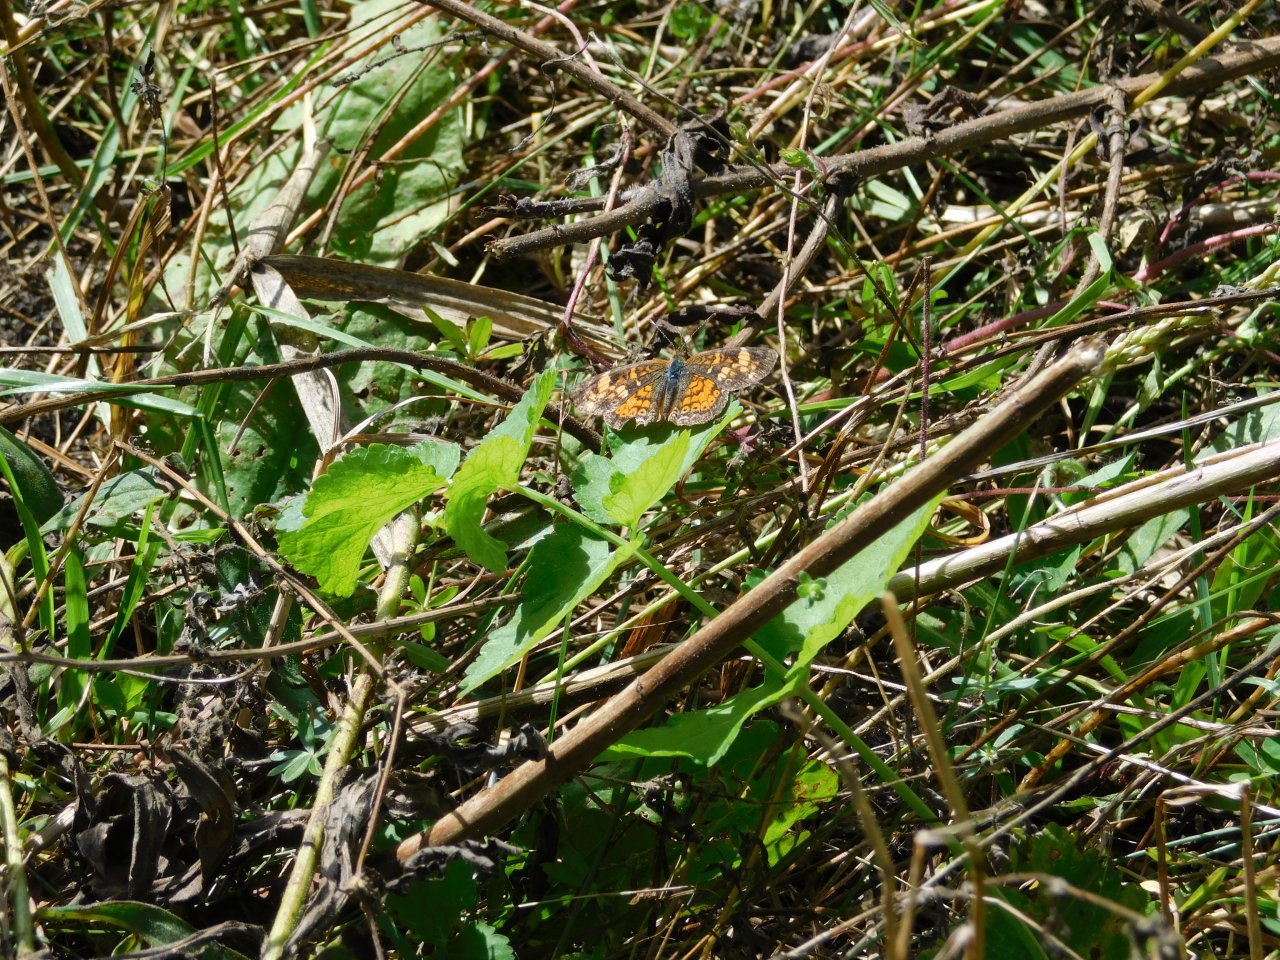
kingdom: Animalia
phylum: Arthropoda
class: Insecta
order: Lepidoptera
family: Nymphalidae
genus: Phyciodes
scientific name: Phyciodes tharos
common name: Northern Crescent
